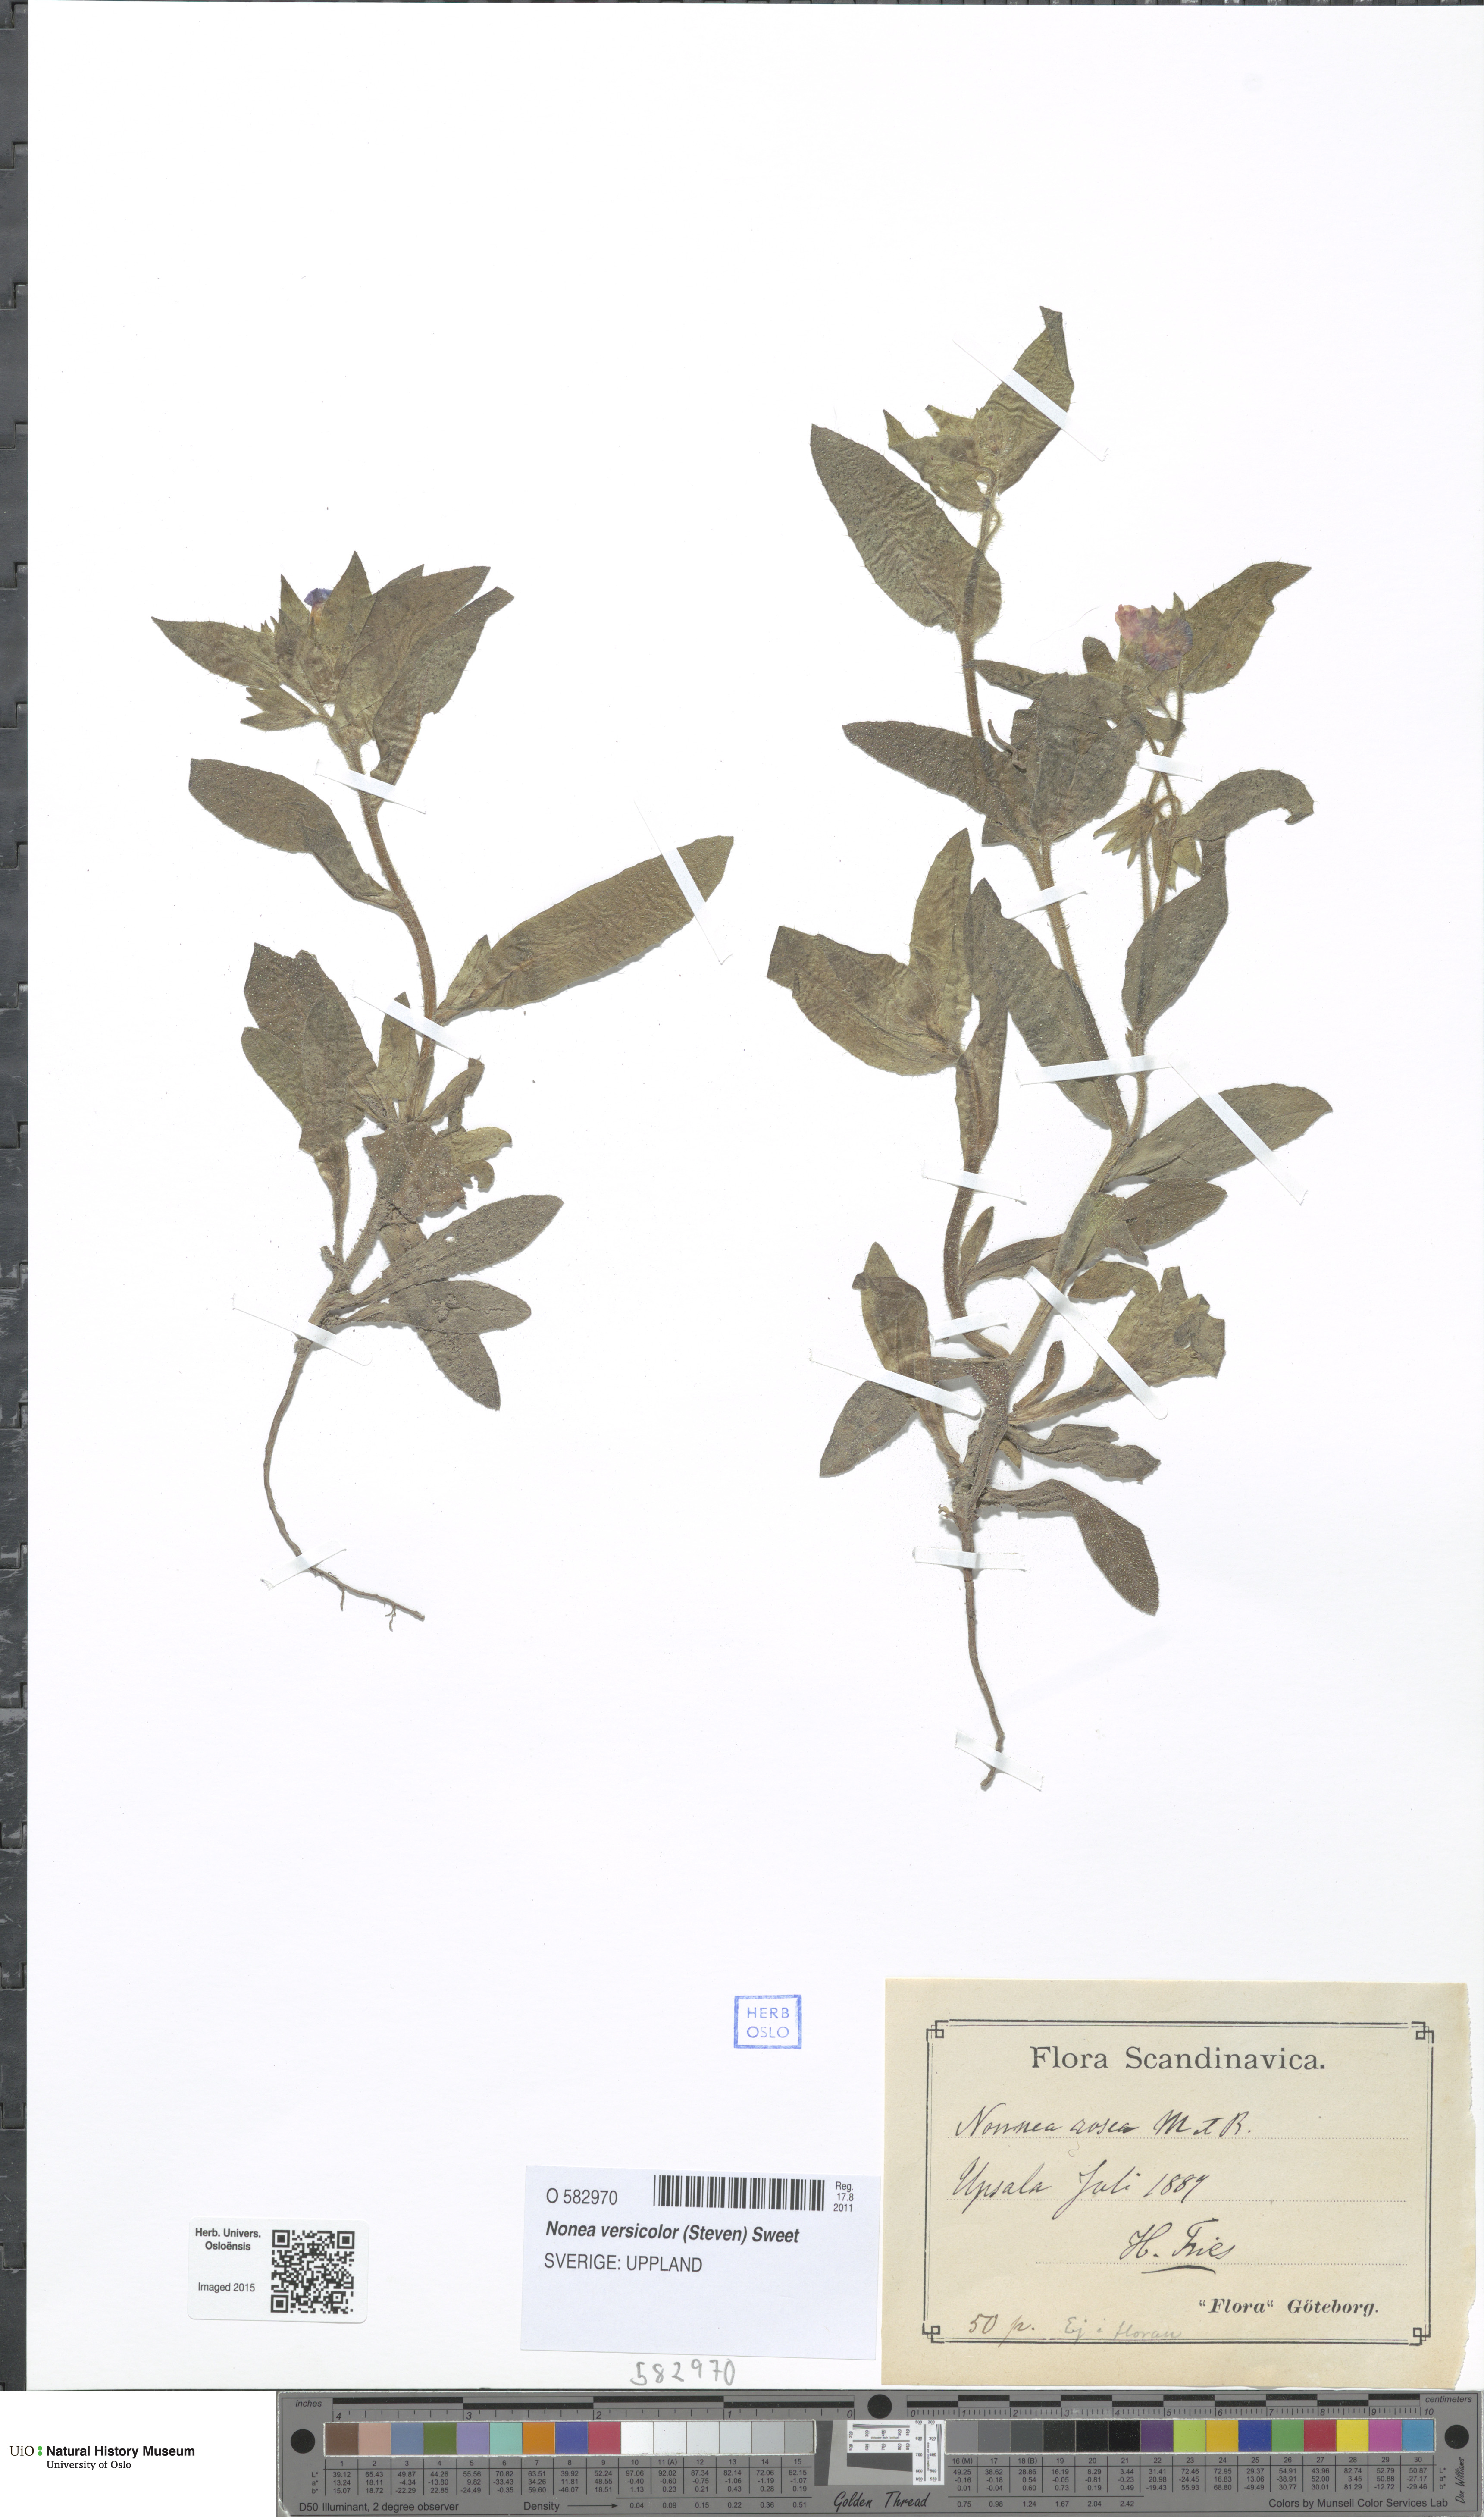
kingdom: Plantae
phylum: Tracheophyta
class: Magnoliopsida
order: Boraginales
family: Boraginaceae
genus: Nonea
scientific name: Nonea versicolor
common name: Varied monkswort
